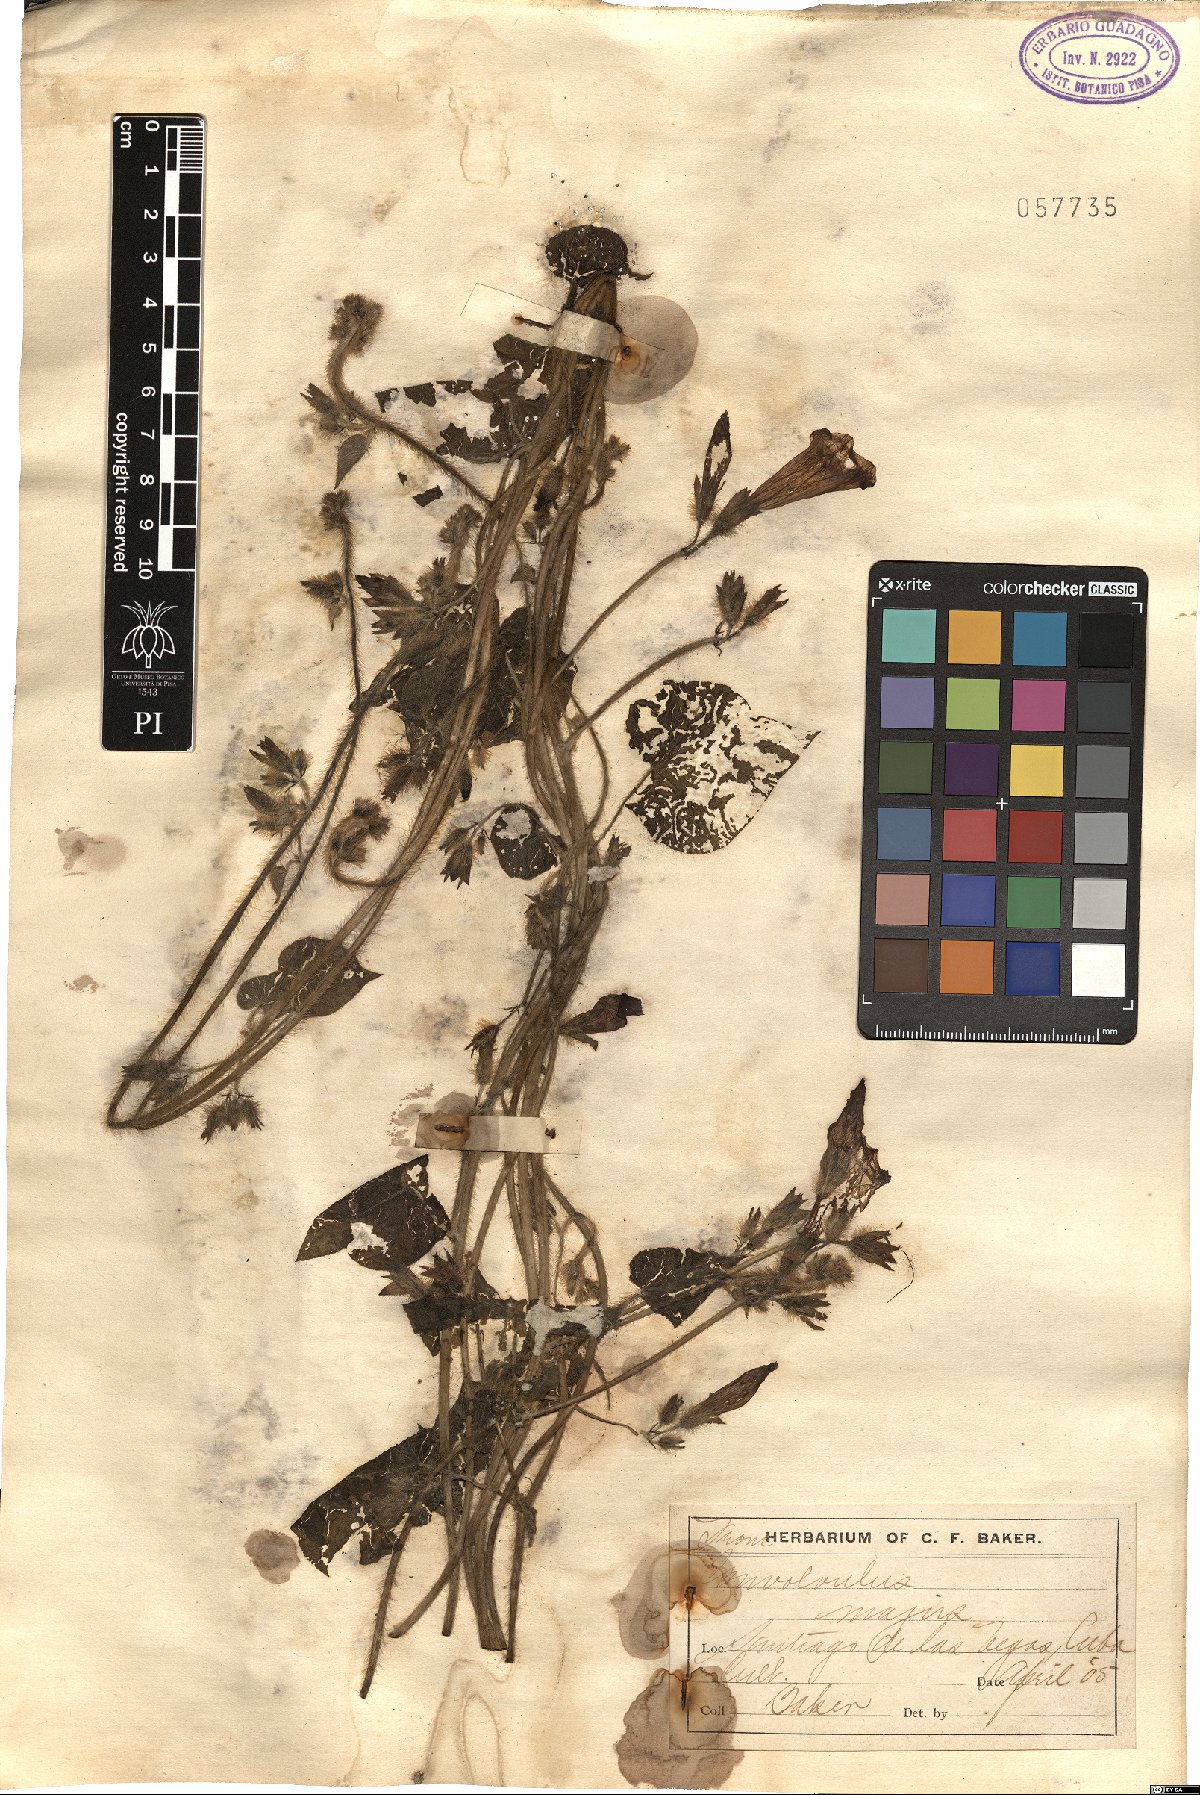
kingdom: Plantae
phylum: Tracheophyta
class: Magnoliopsida
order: Solanales
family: Convolvulaceae
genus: Ipomoea
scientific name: Ipomoea purpurea
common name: Common morning-glory
